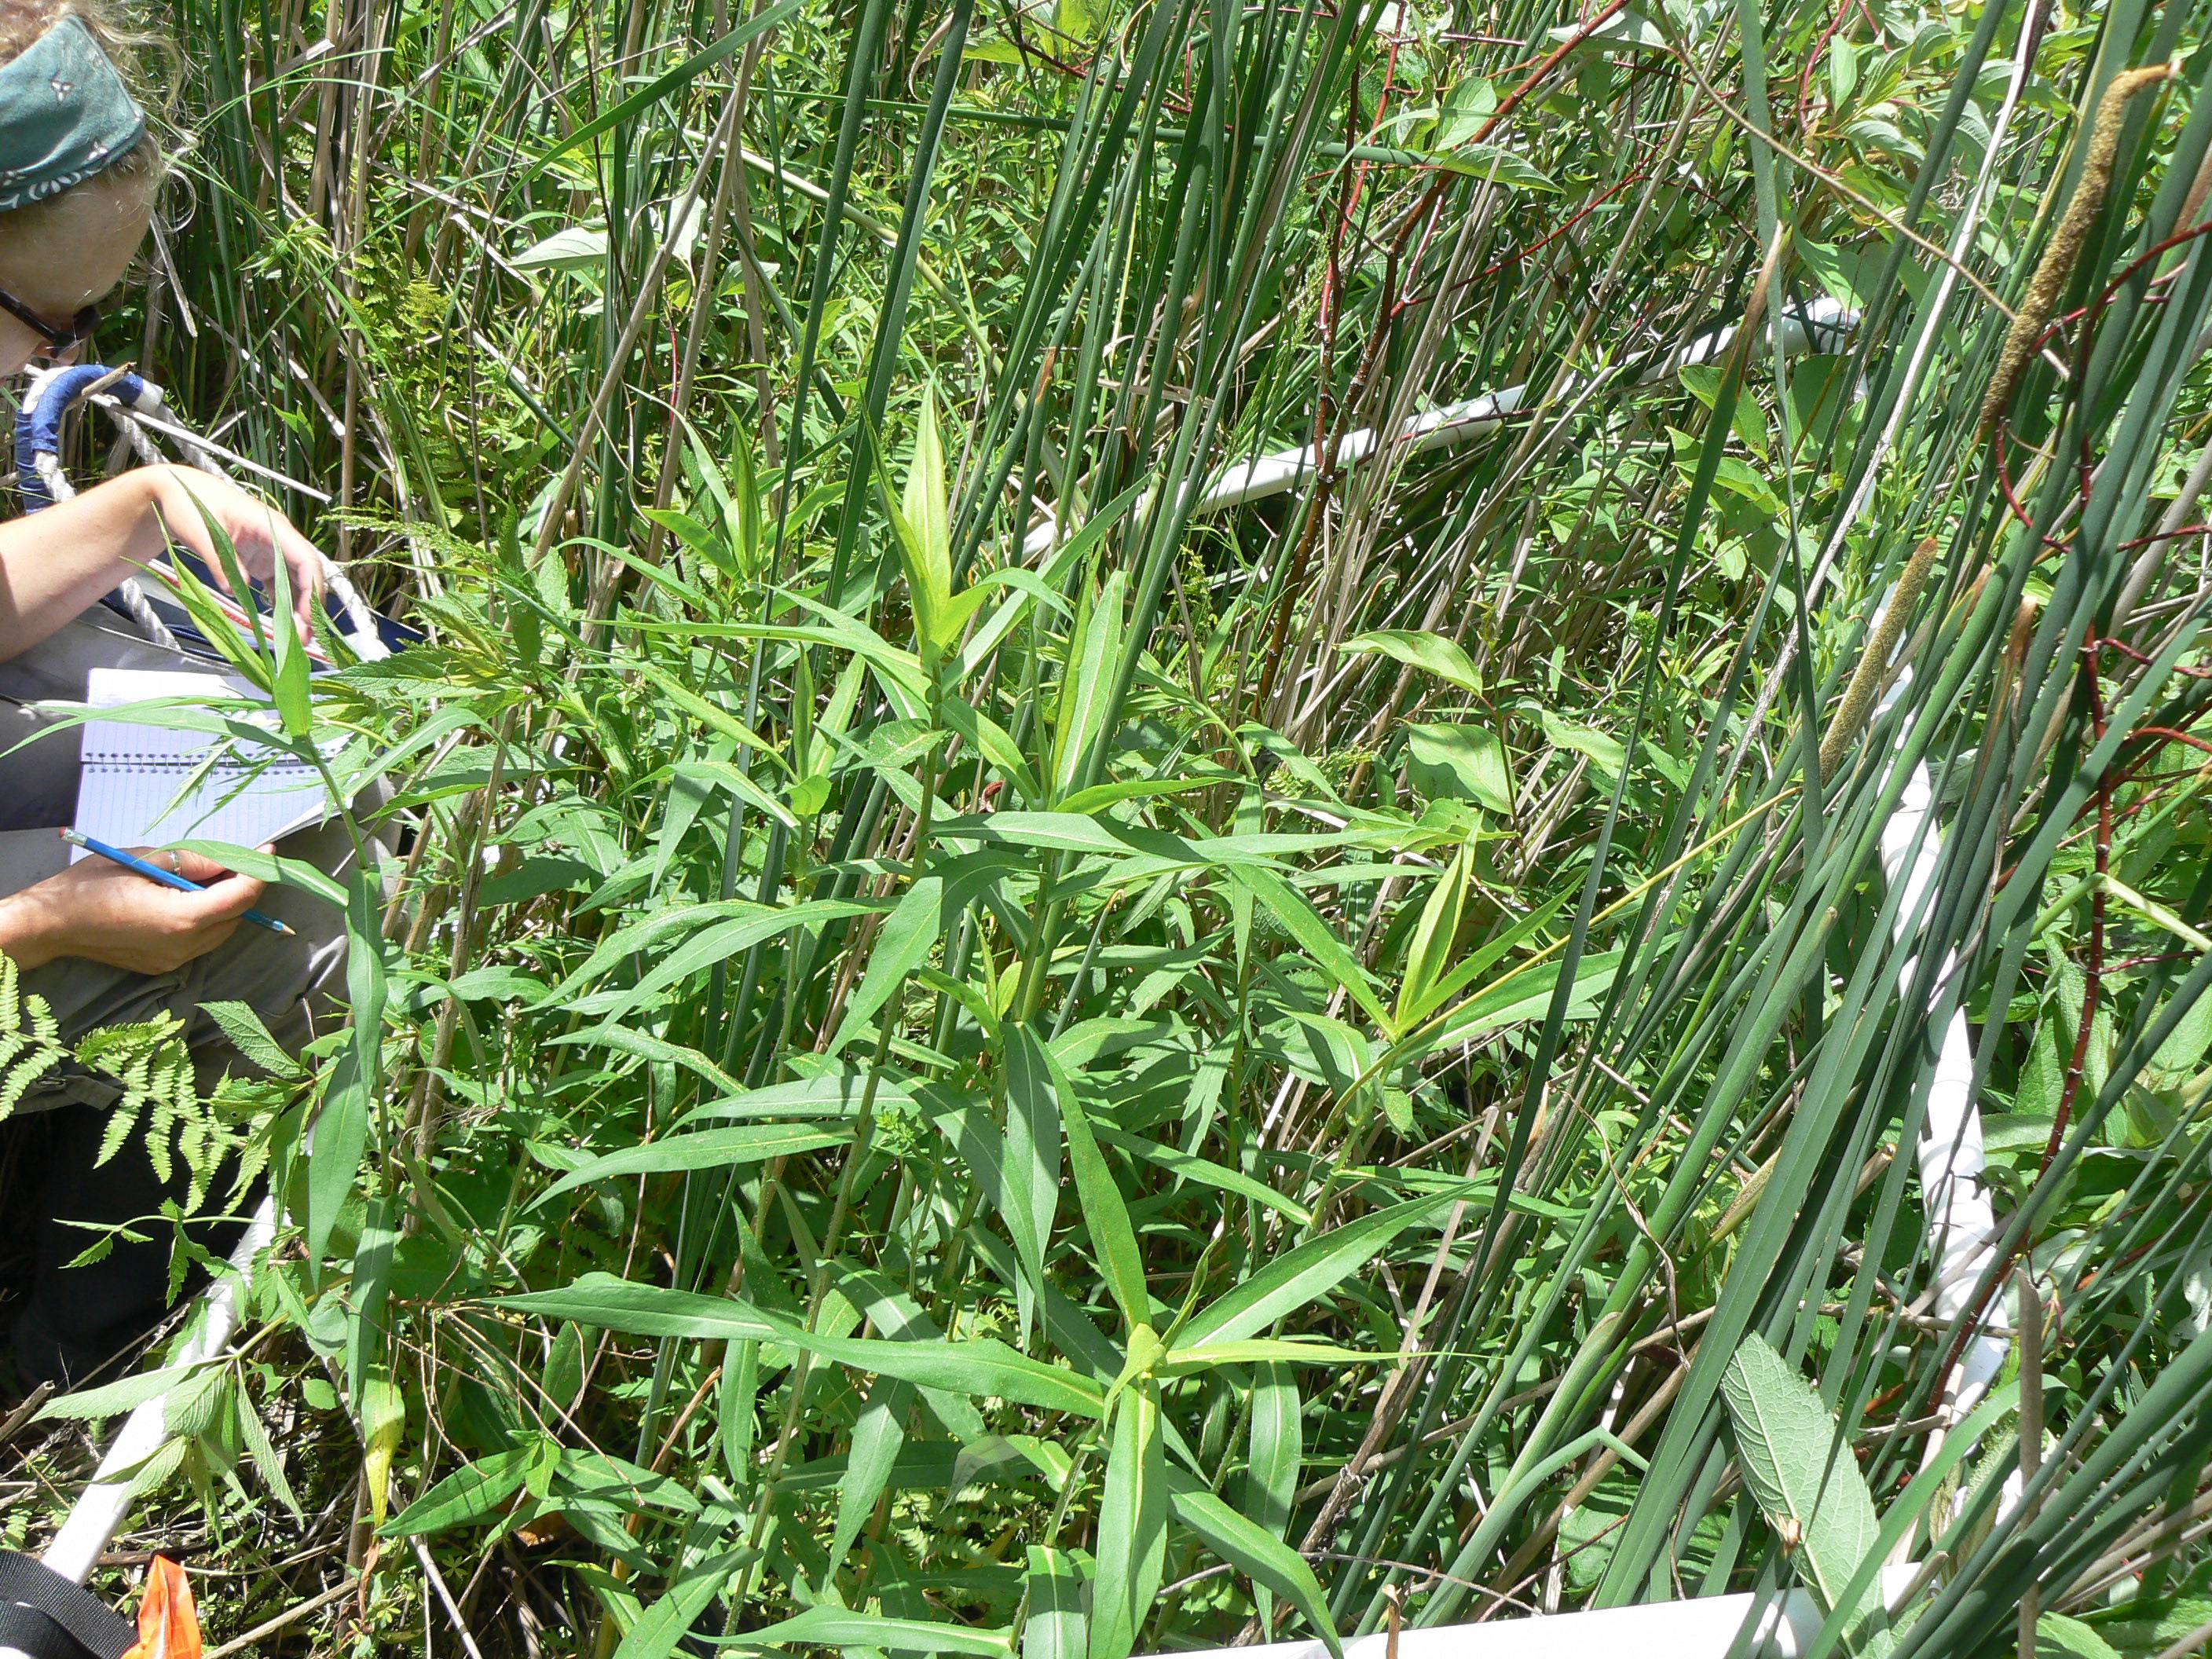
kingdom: Plantae
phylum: Tracheophyta
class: Magnoliopsida
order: Lamiales
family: Lamiaceae
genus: Lycopus
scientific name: Lycopus americanus
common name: American bugleweed
